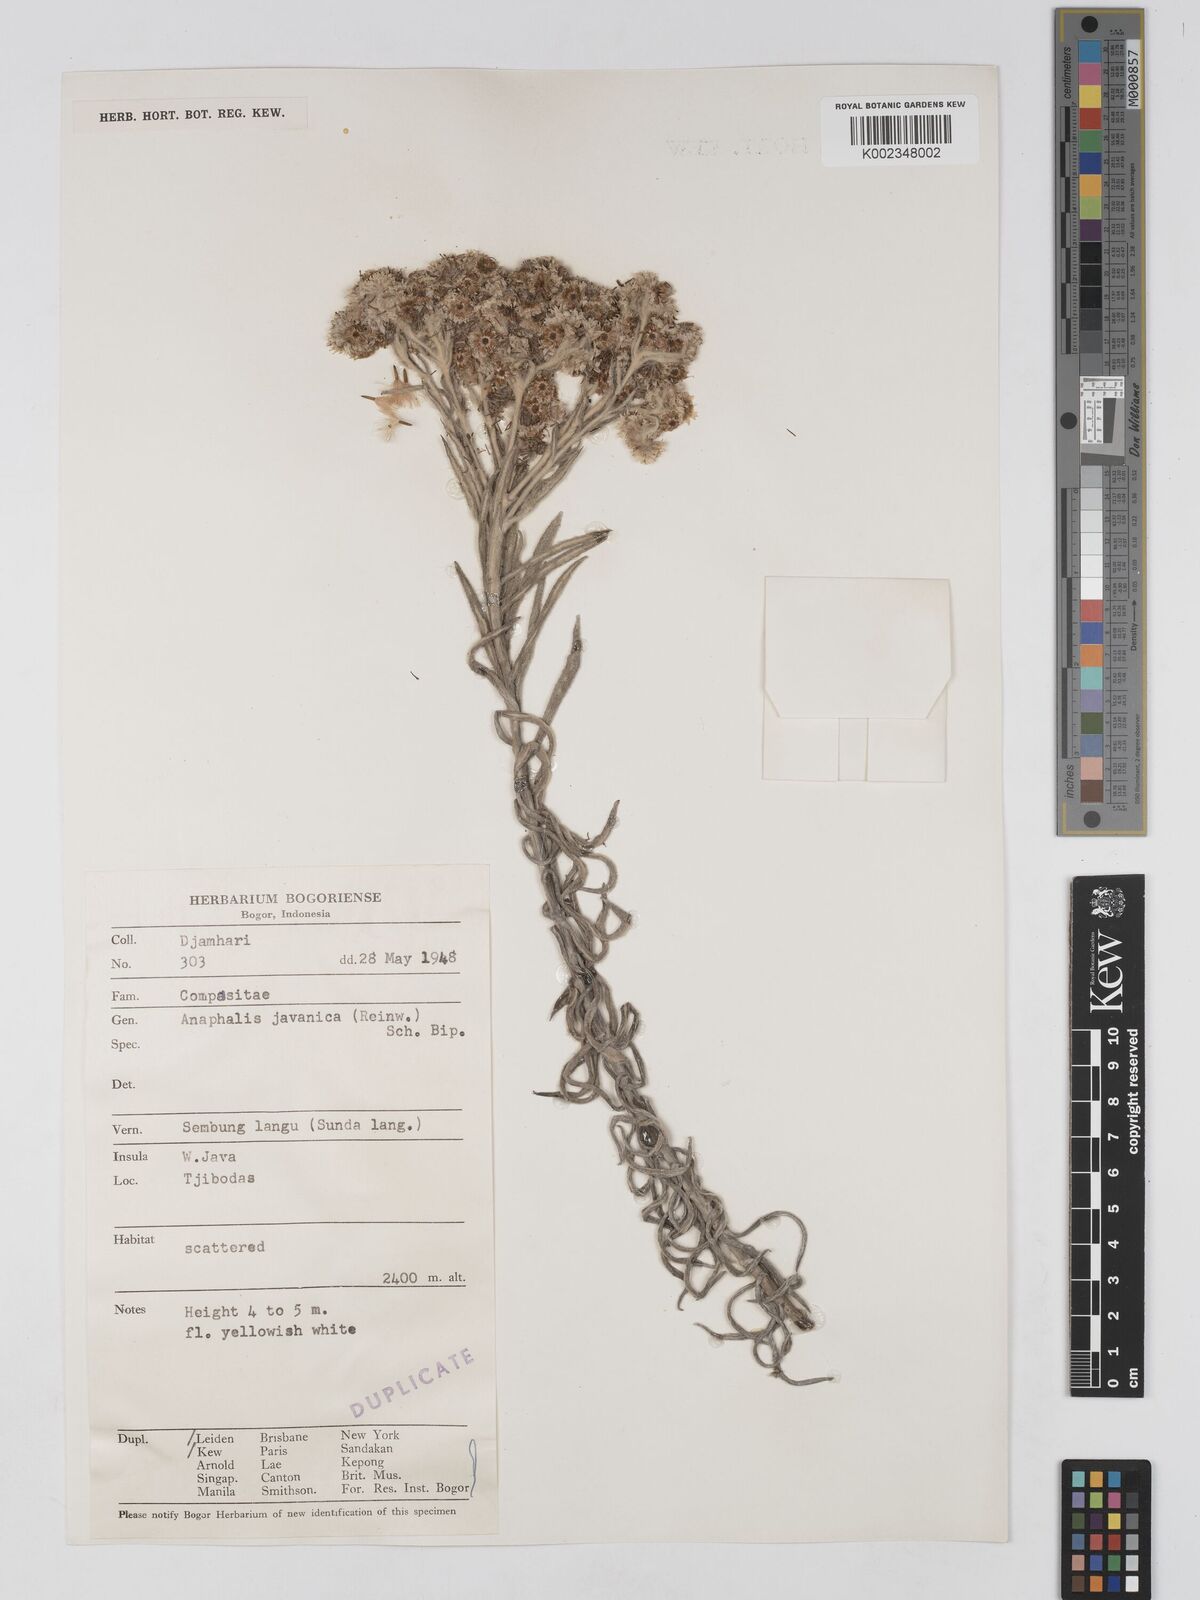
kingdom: Plantae
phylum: Tracheophyta
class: Magnoliopsida
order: Asterales
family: Asteraceae
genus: Anaphalis
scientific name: Anaphalis javanica
